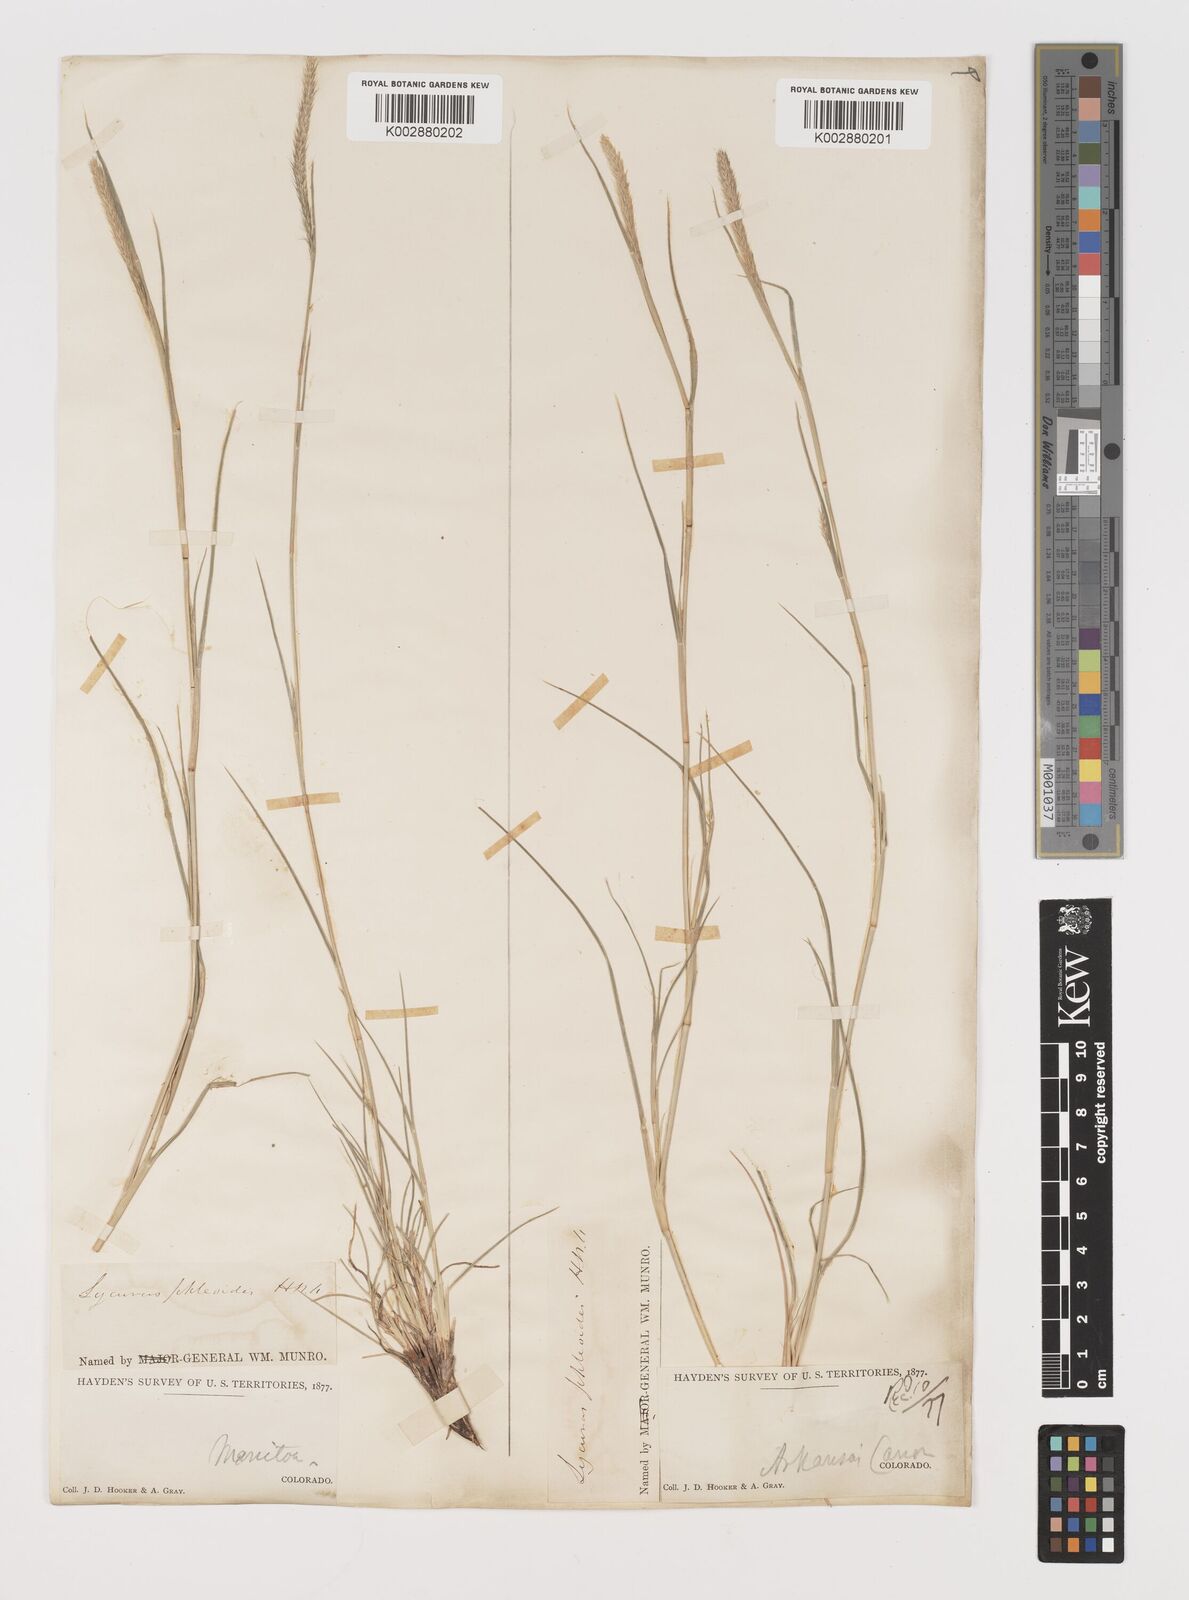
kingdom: Plantae
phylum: Tracheophyta
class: Liliopsida
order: Poales
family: Poaceae
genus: Muhlenbergia
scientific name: Muhlenbergia alopecuroides
